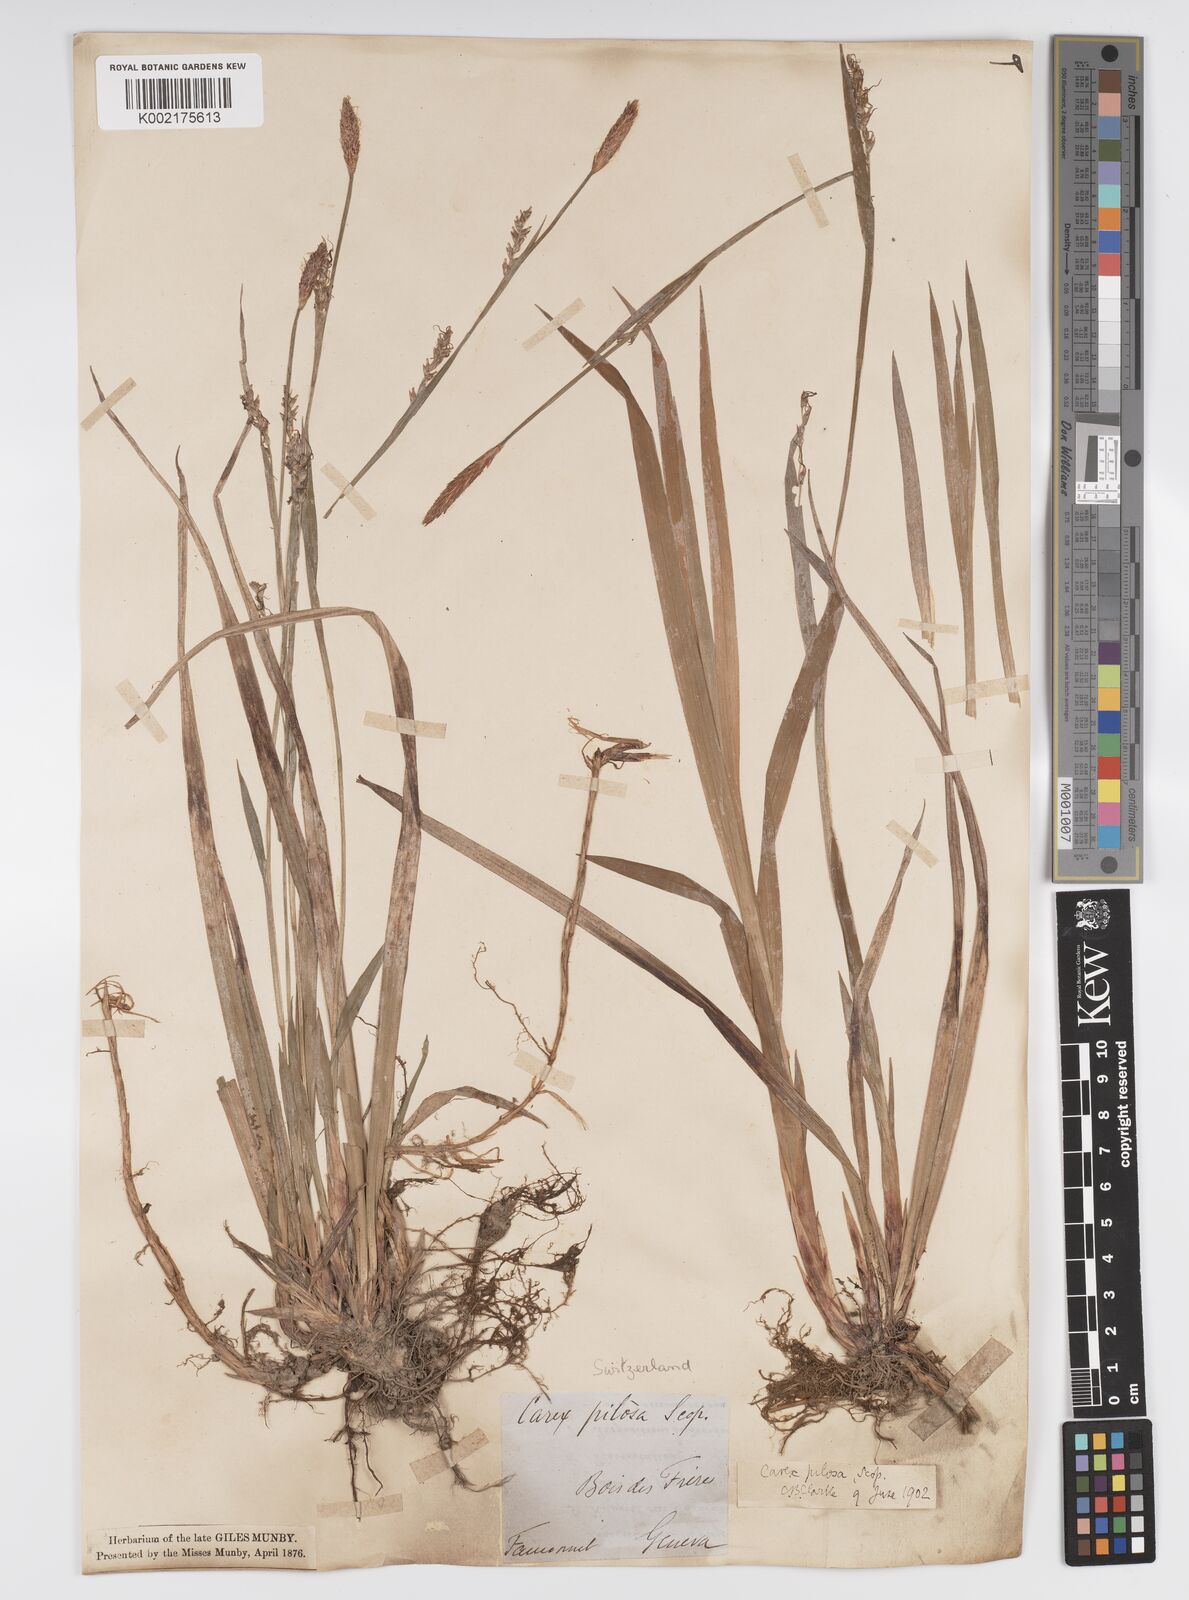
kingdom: Plantae
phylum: Tracheophyta
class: Liliopsida
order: Poales
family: Cyperaceae
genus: Carex
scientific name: Carex pilosa
